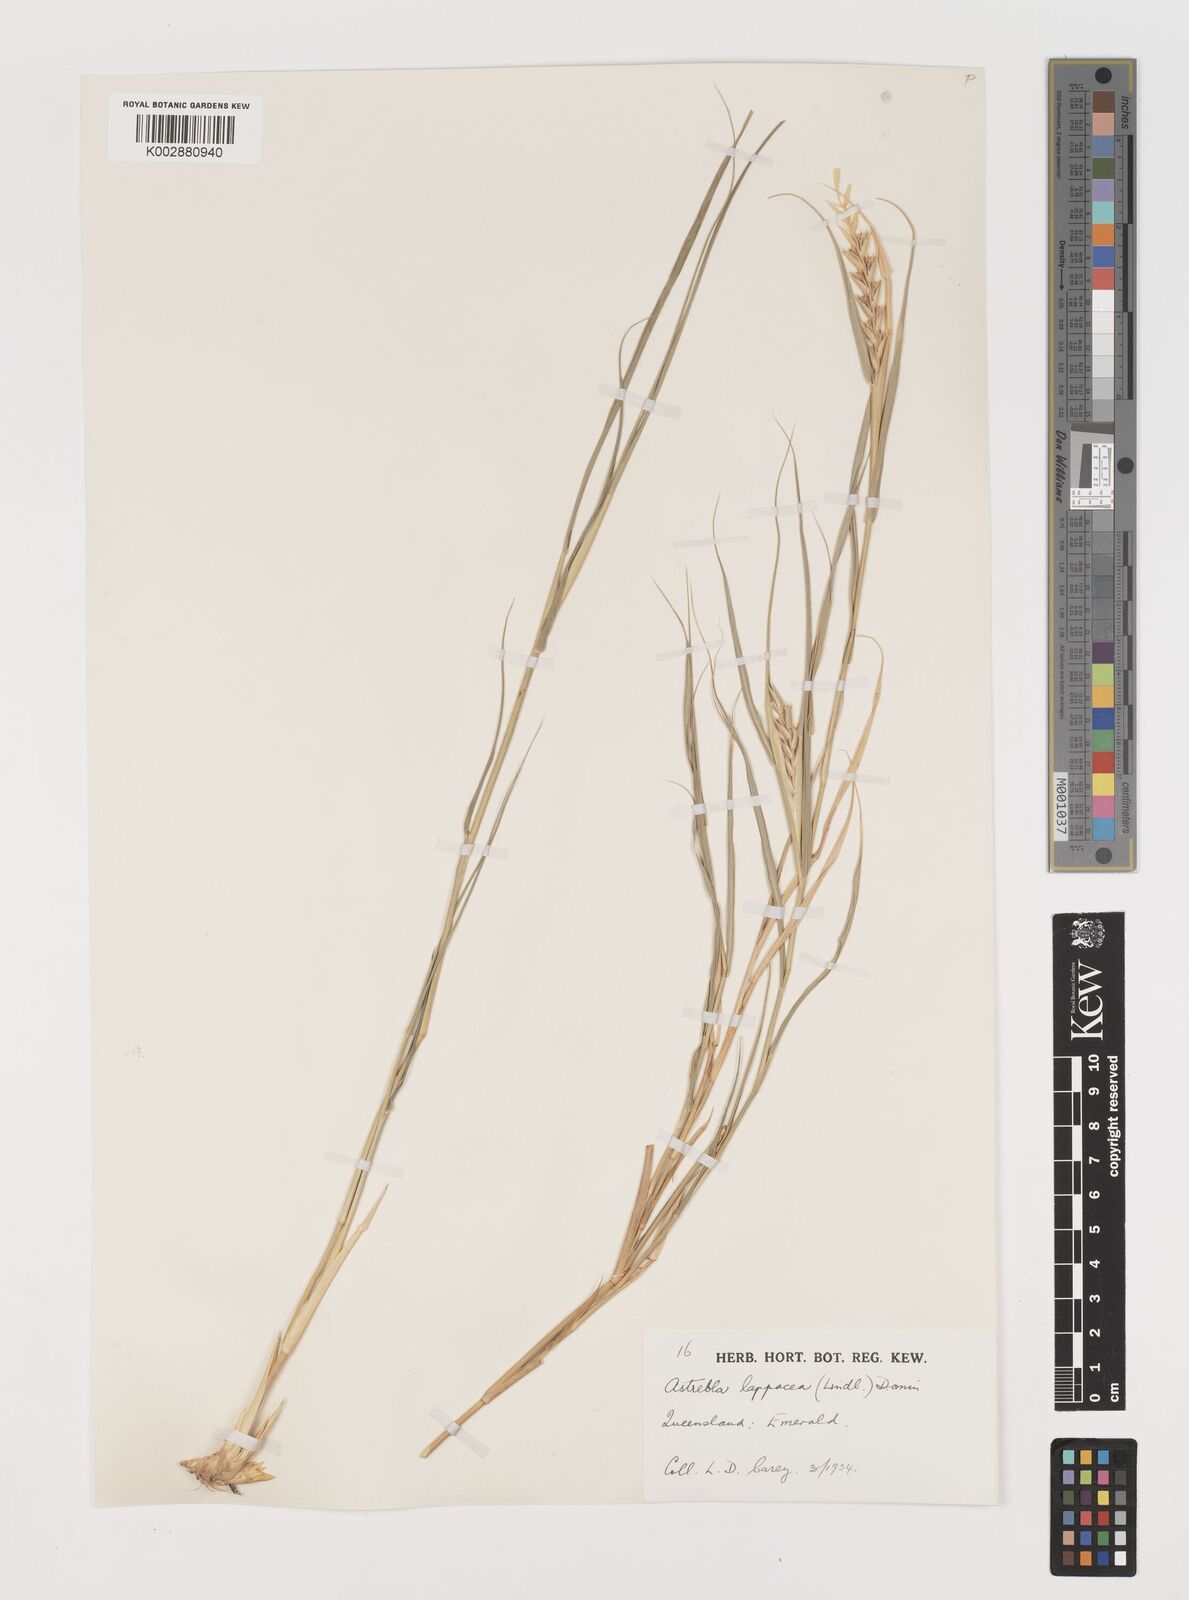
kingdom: Plantae
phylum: Tracheophyta
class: Liliopsida
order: Poales
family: Poaceae
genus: Astrebla
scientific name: Astrebla lappacea
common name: Curly mitchell grass
